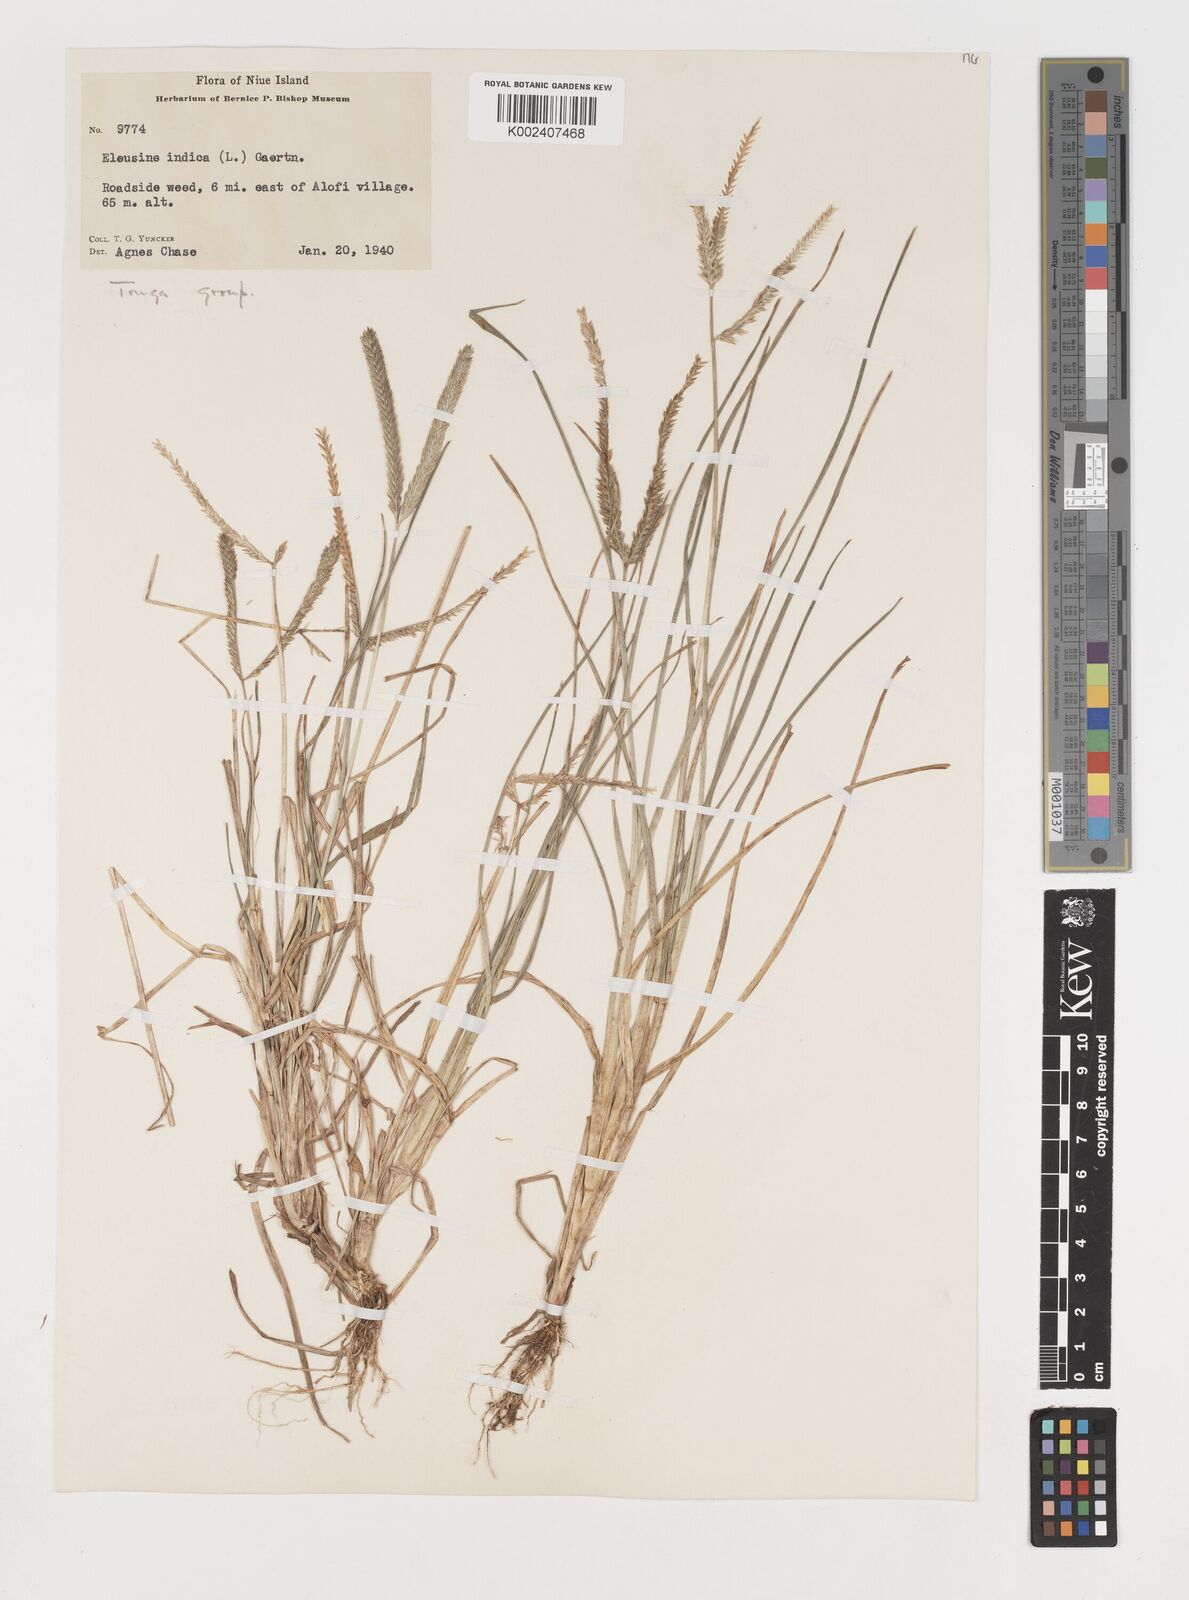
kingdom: Plantae
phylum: Tracheophyta
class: Liliopsida
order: Poales
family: Poaceae
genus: Eleusine
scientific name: Eleusine indica
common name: Yard-grass
